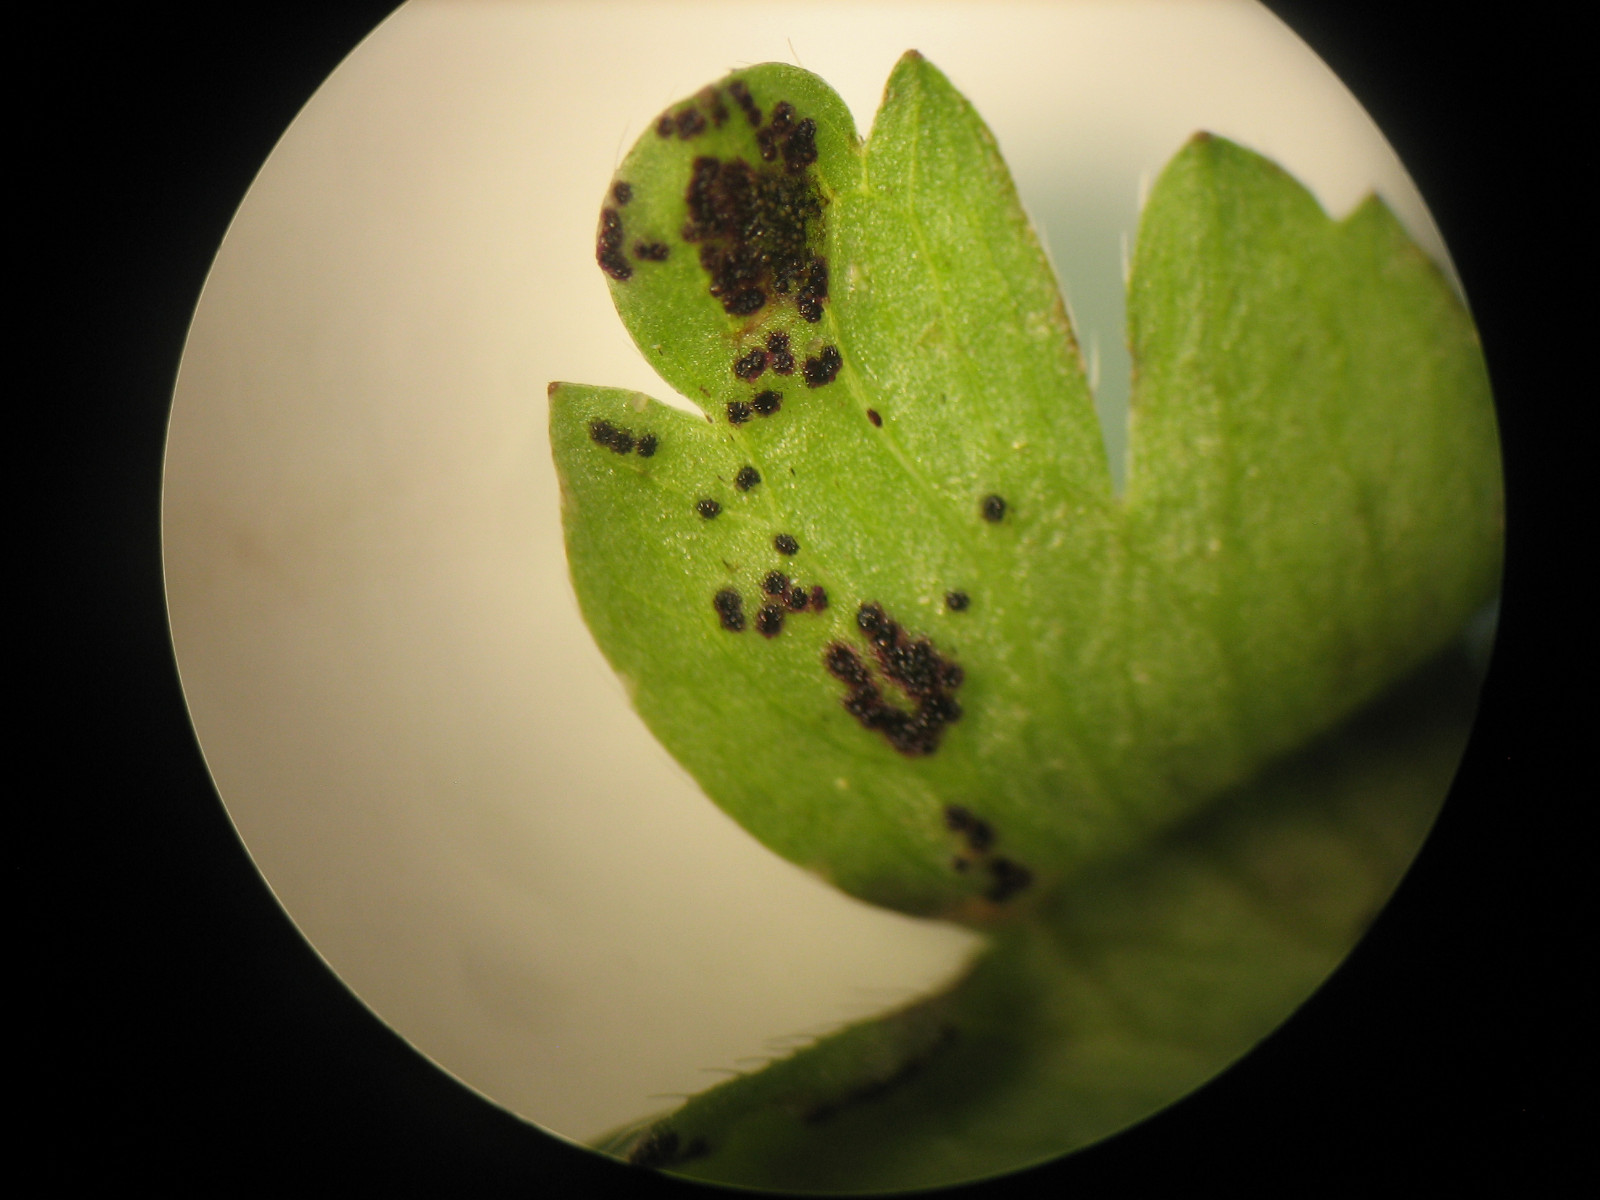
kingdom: Fungi
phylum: Chytridiomycota
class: Chytridiomycetes
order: Chytridiales
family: Synchytriaceae
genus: Synchytrium
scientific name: Synchytrium anemones
